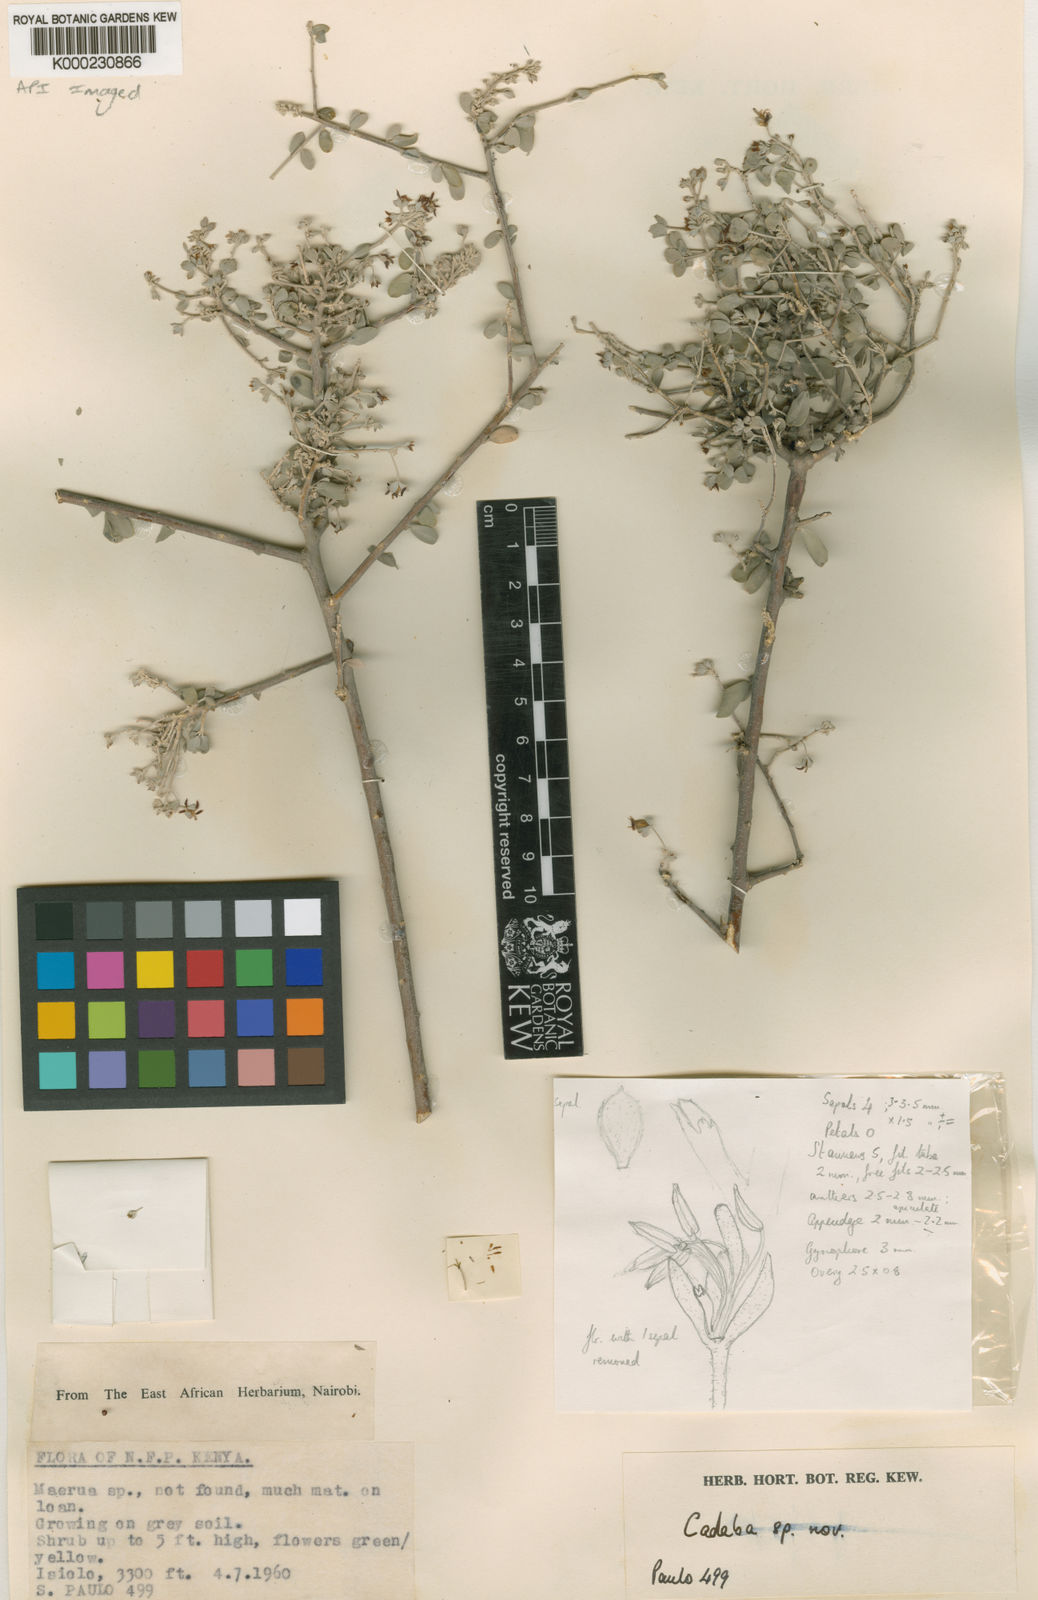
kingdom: Plantae
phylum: Tracheophyta
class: Magnoliopsida
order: Brassicales
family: Capparaceae
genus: Cadaba
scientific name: Cadaba parvula
